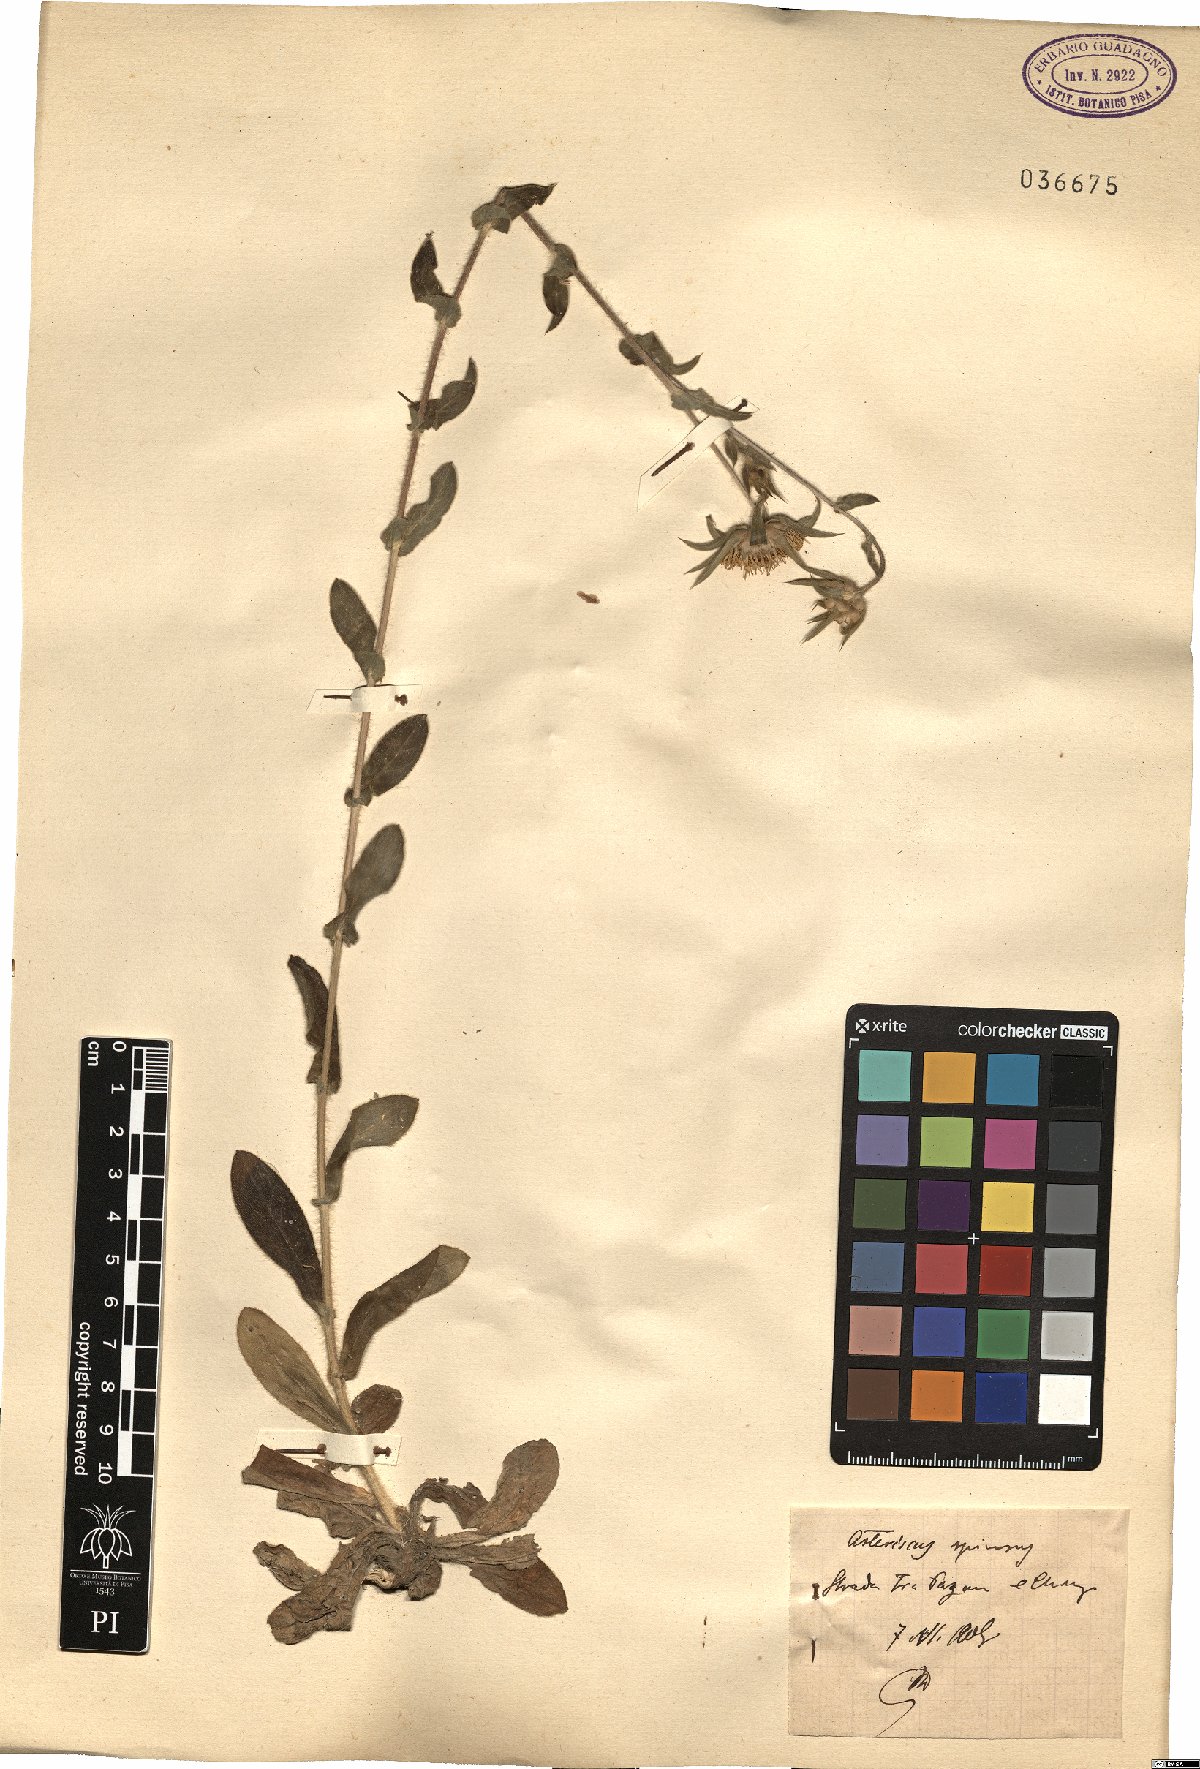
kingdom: Plantae
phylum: Tracheophyta
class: Magnoliopsida
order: Asterales
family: Asteraceae
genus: Pallenis
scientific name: Pallenis spinosa
